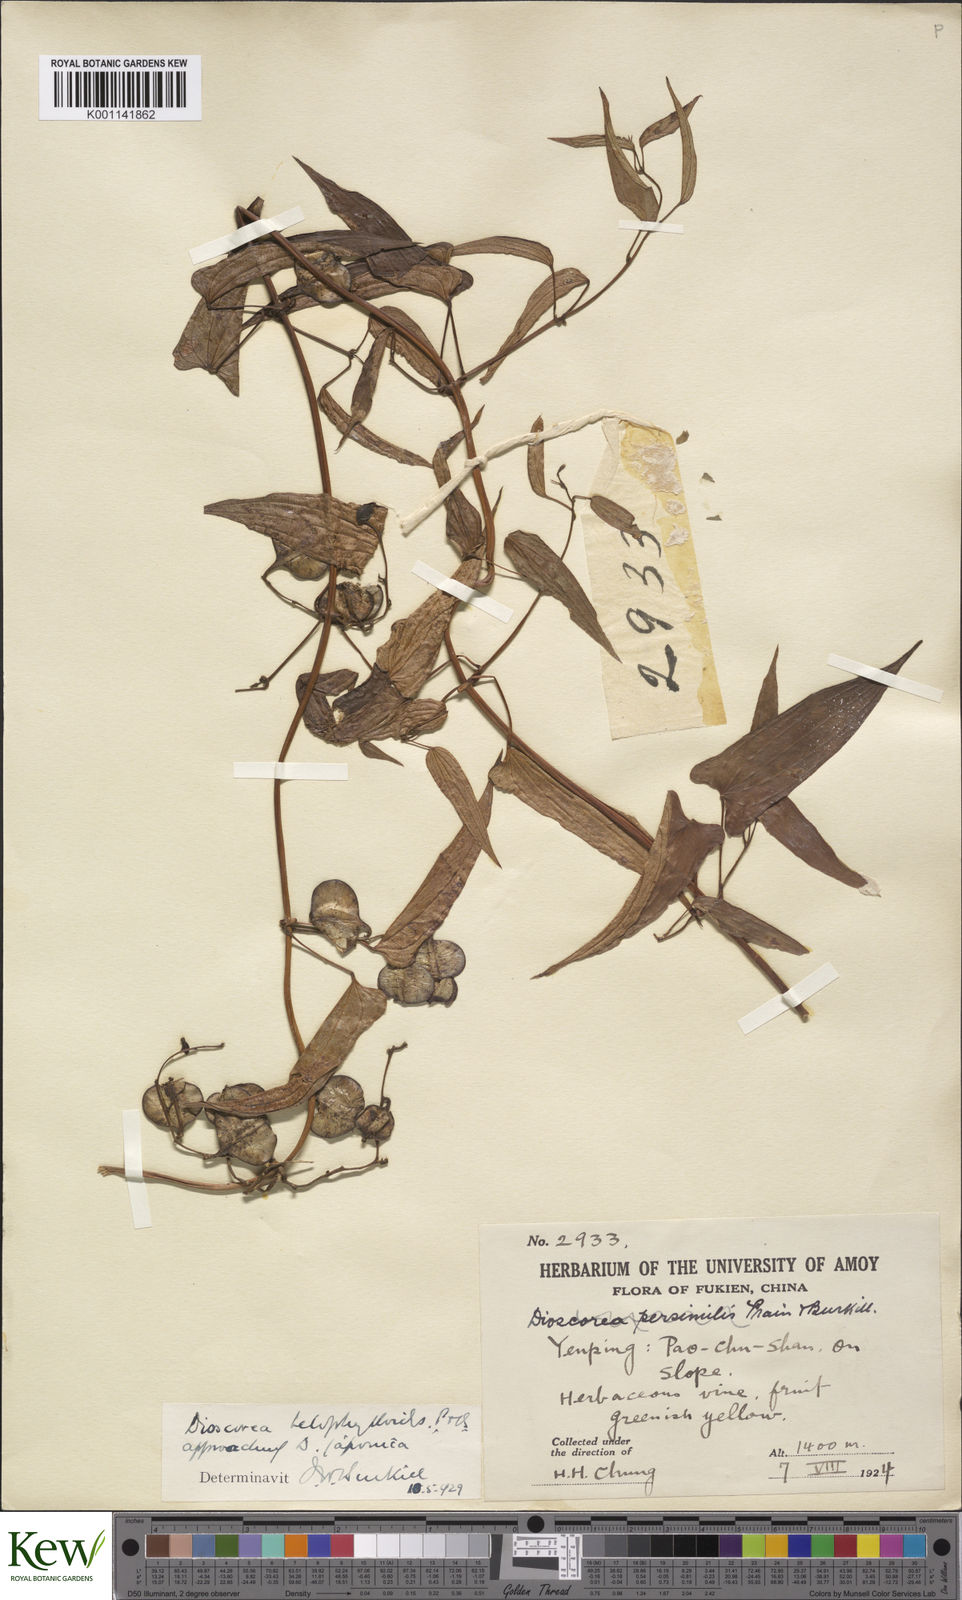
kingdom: Plantae
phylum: Tracheophyta
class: Liliopsida
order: Dioscoreales
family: Dioscoreaceae
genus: Dioscorea
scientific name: Dioscorea japonica
